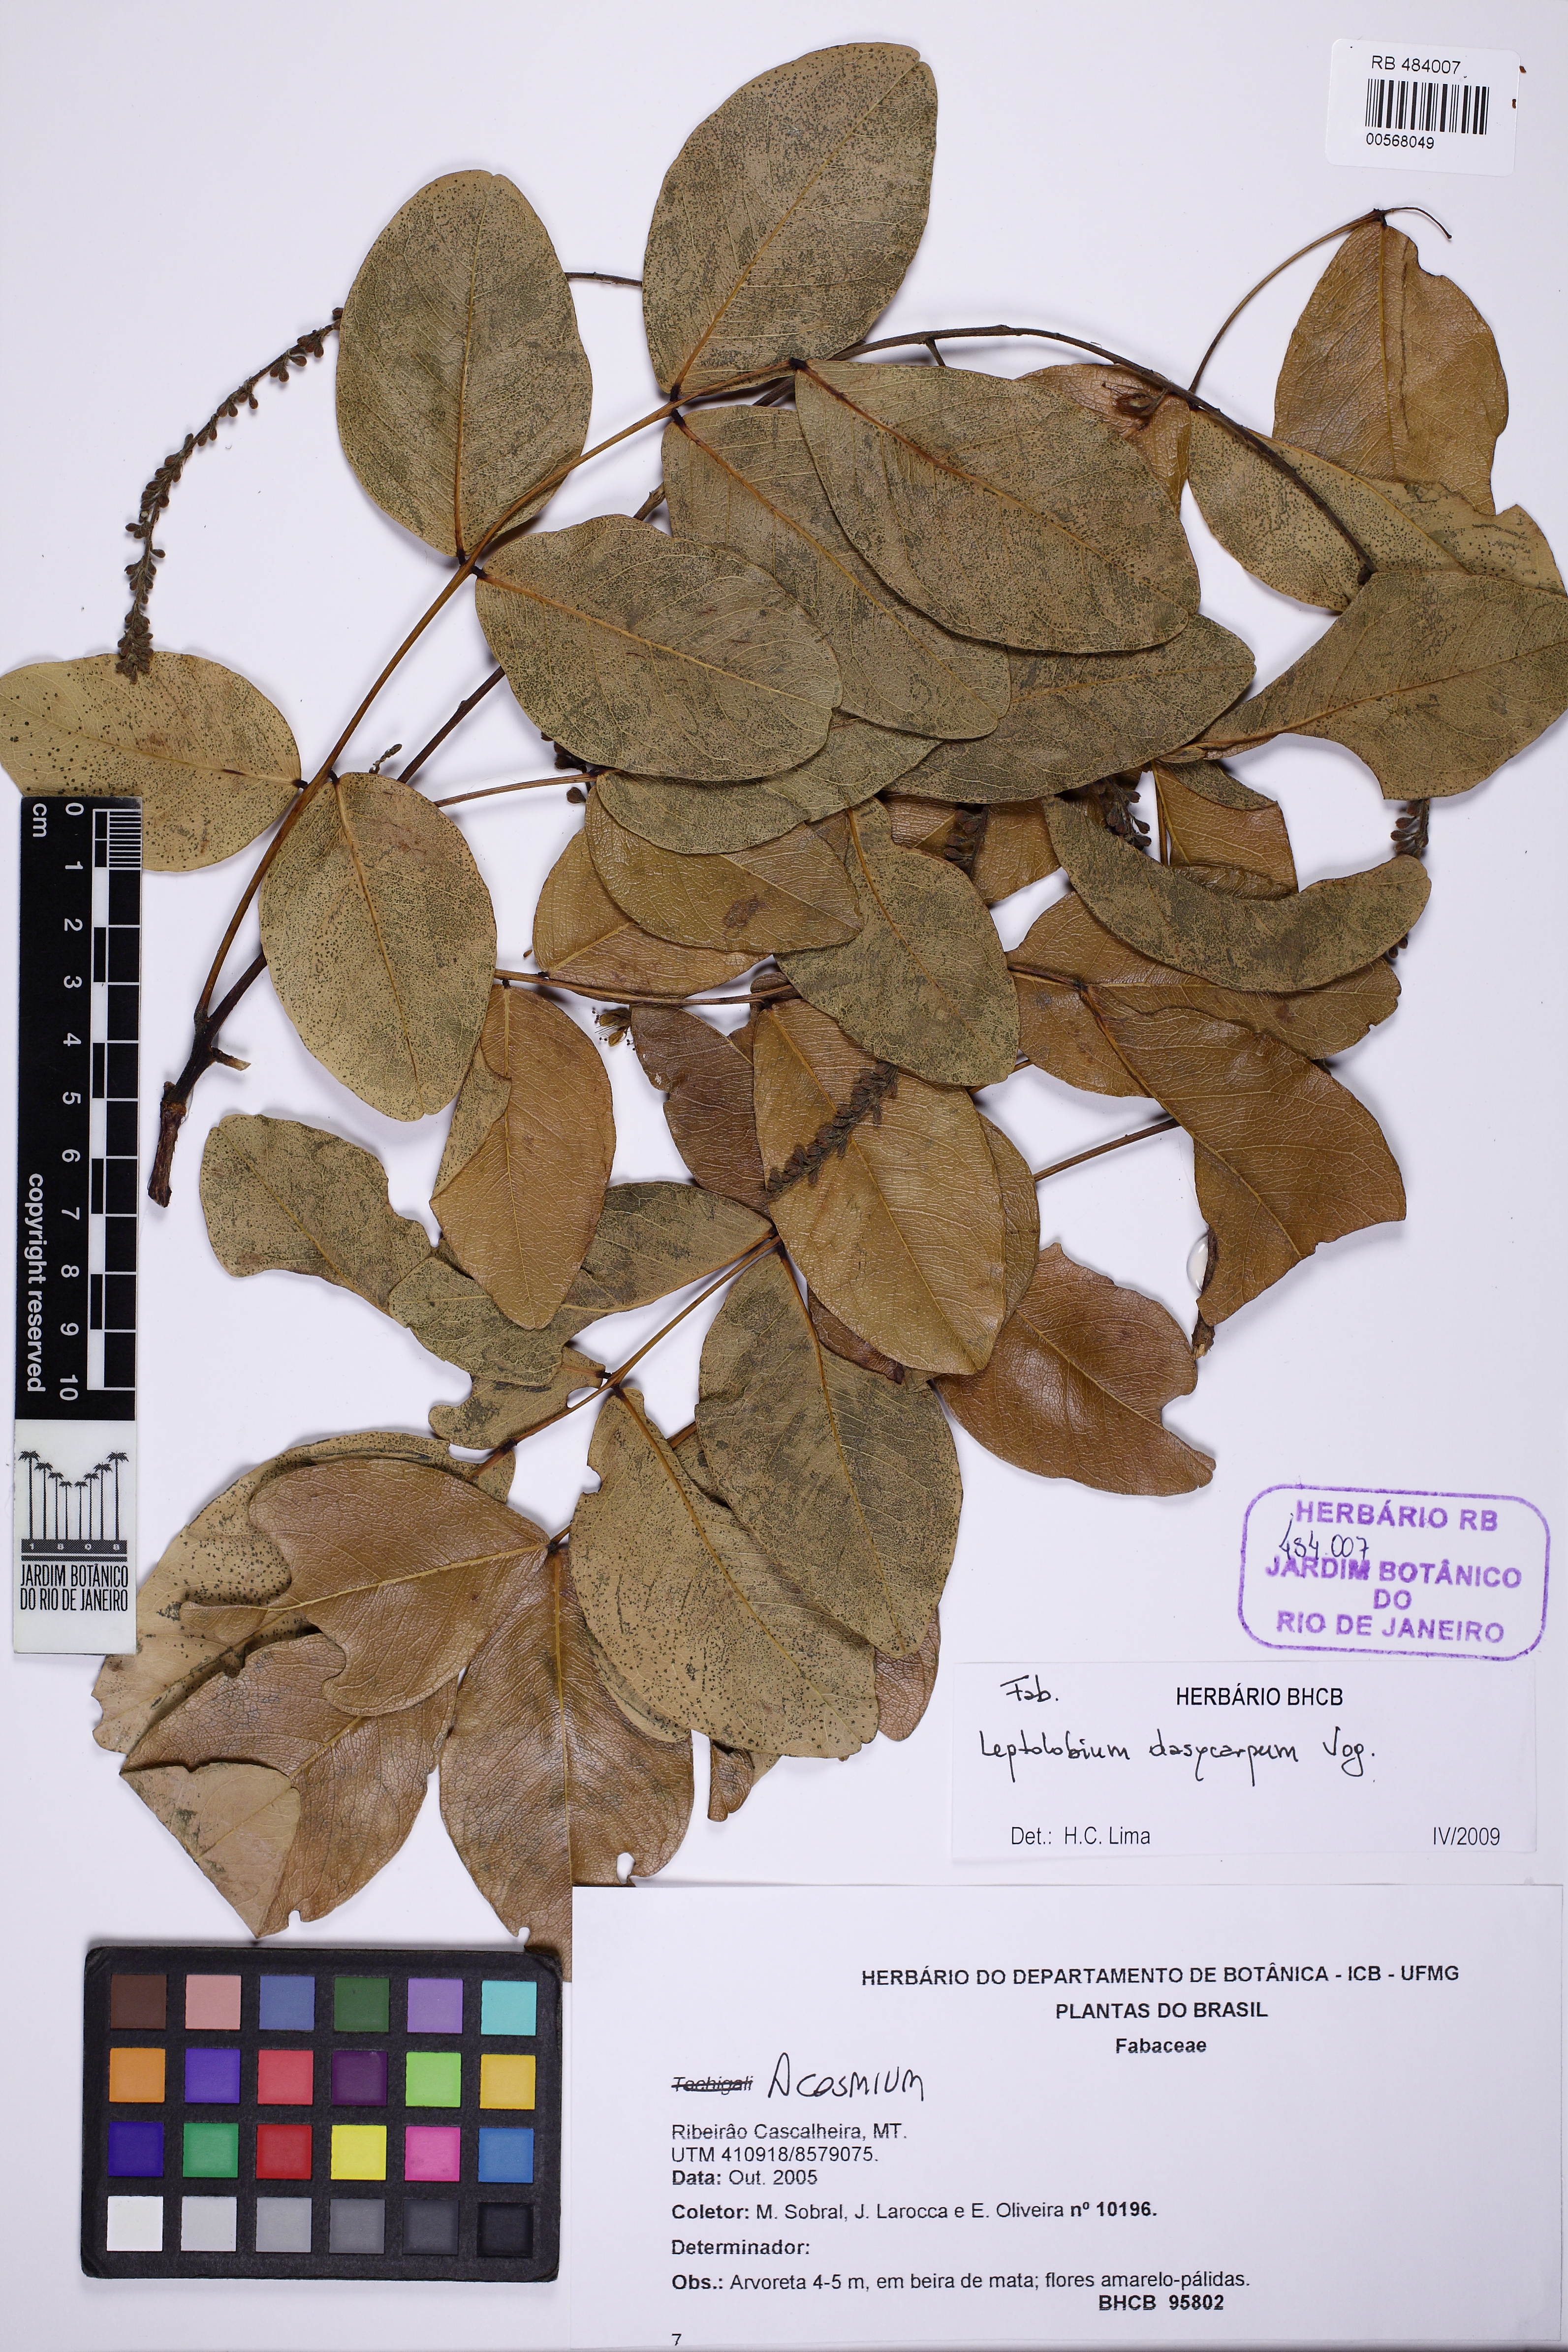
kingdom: Plantae
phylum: Tracheophyta
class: Magnoliopsida
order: Fabales
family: Fabaceae
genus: Leptolobium
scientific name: Leptolobium dasycarpum
